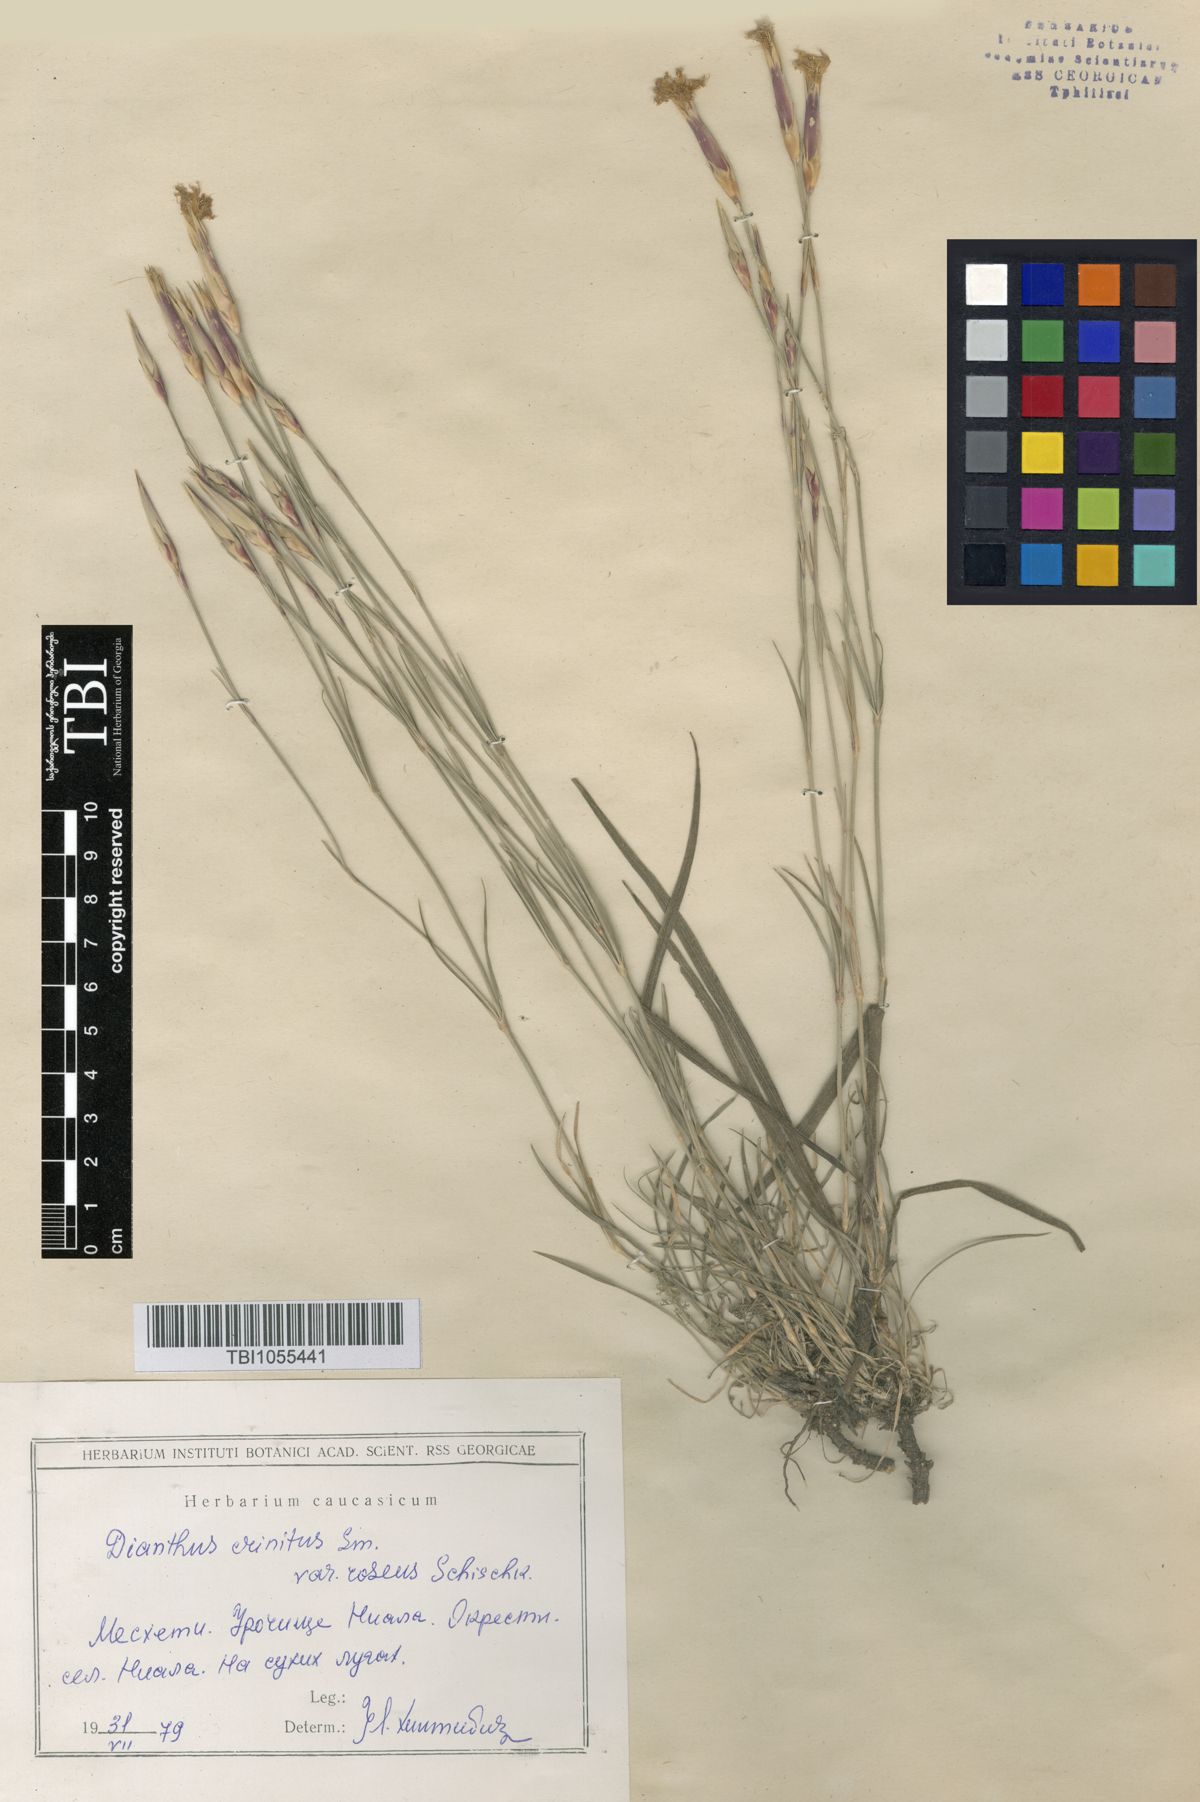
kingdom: Plantae
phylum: Tracheophyta
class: Magnoliopsida
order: Caryophyllales
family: Caryophyllaceae
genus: Dianthus
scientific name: Dianthus crinitus
